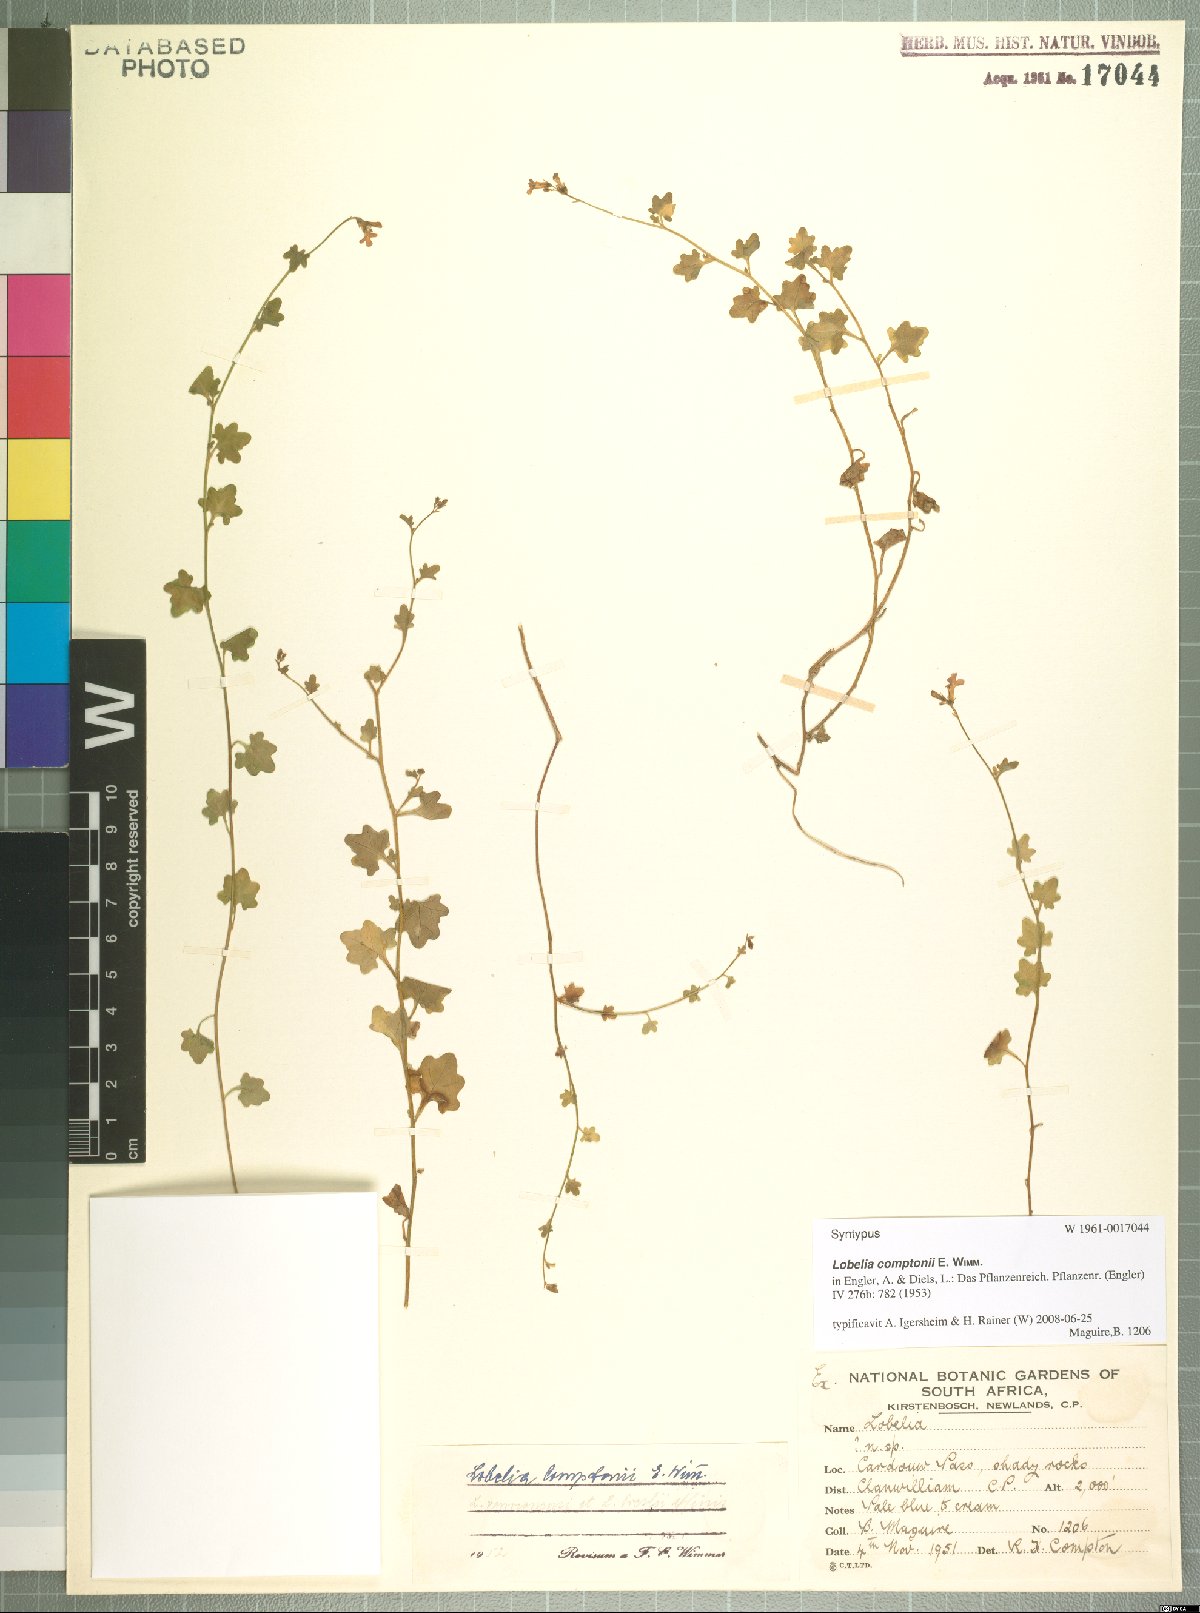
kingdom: Plantae
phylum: Tracheophyta
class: Magnoliopsida
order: Asterales
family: Campanulaceae
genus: Lobelia
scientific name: Lobelia comptonii
